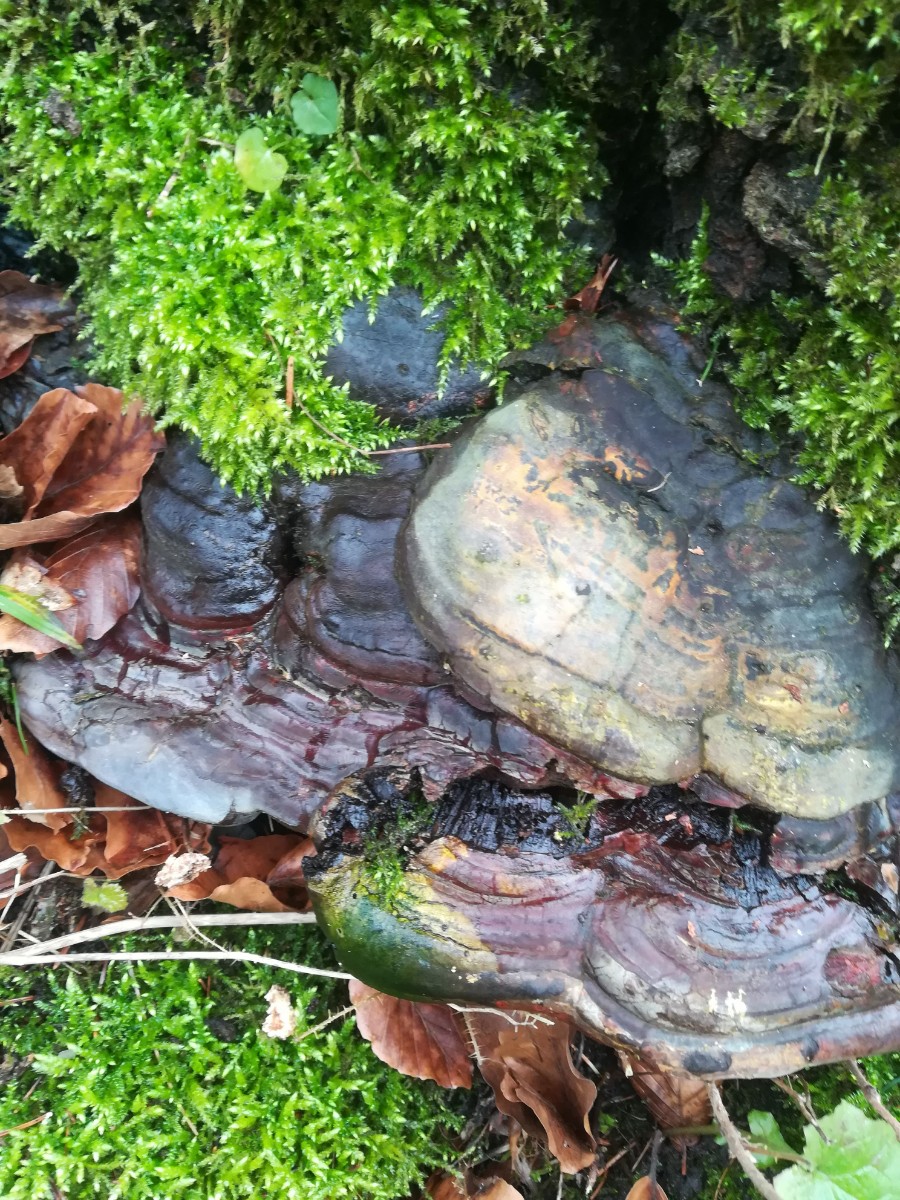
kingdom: Fungi
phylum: Basidiomycota
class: Agaricomycetes
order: Polyporales
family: Polyporaceae
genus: Ganoderma
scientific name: Ganoderma pfeifferi
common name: kobberrød lakporesvamp
